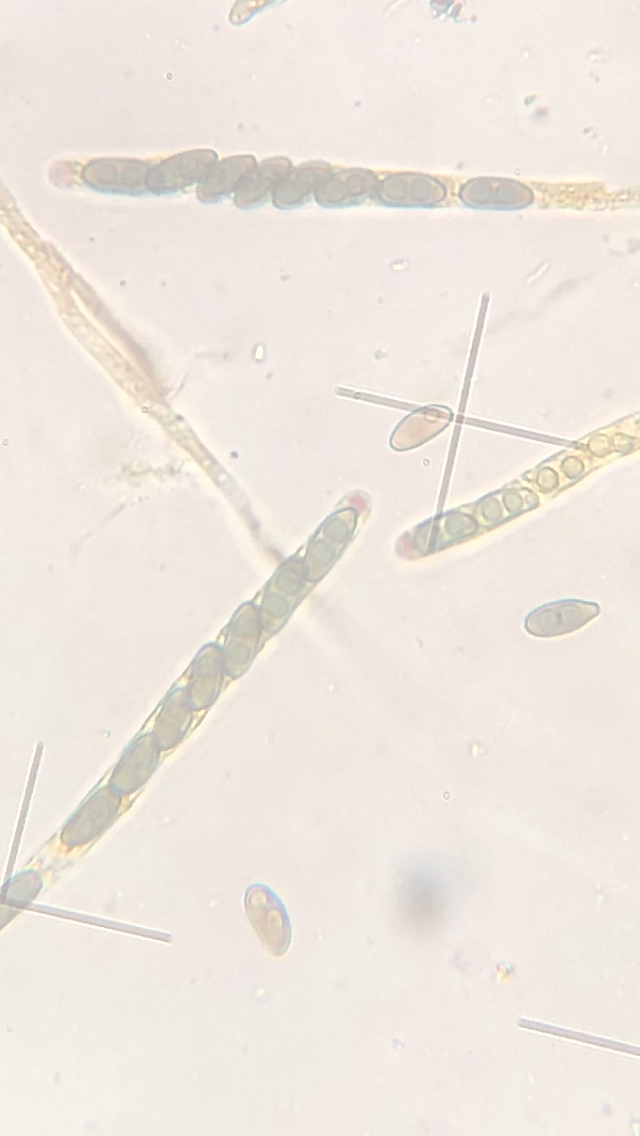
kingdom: Fungi
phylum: Ascomycota
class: Sordariomycetes
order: Xylariales
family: Xylariaceae
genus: Nemania
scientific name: Nemania serpens
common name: almindelig kuldyne
